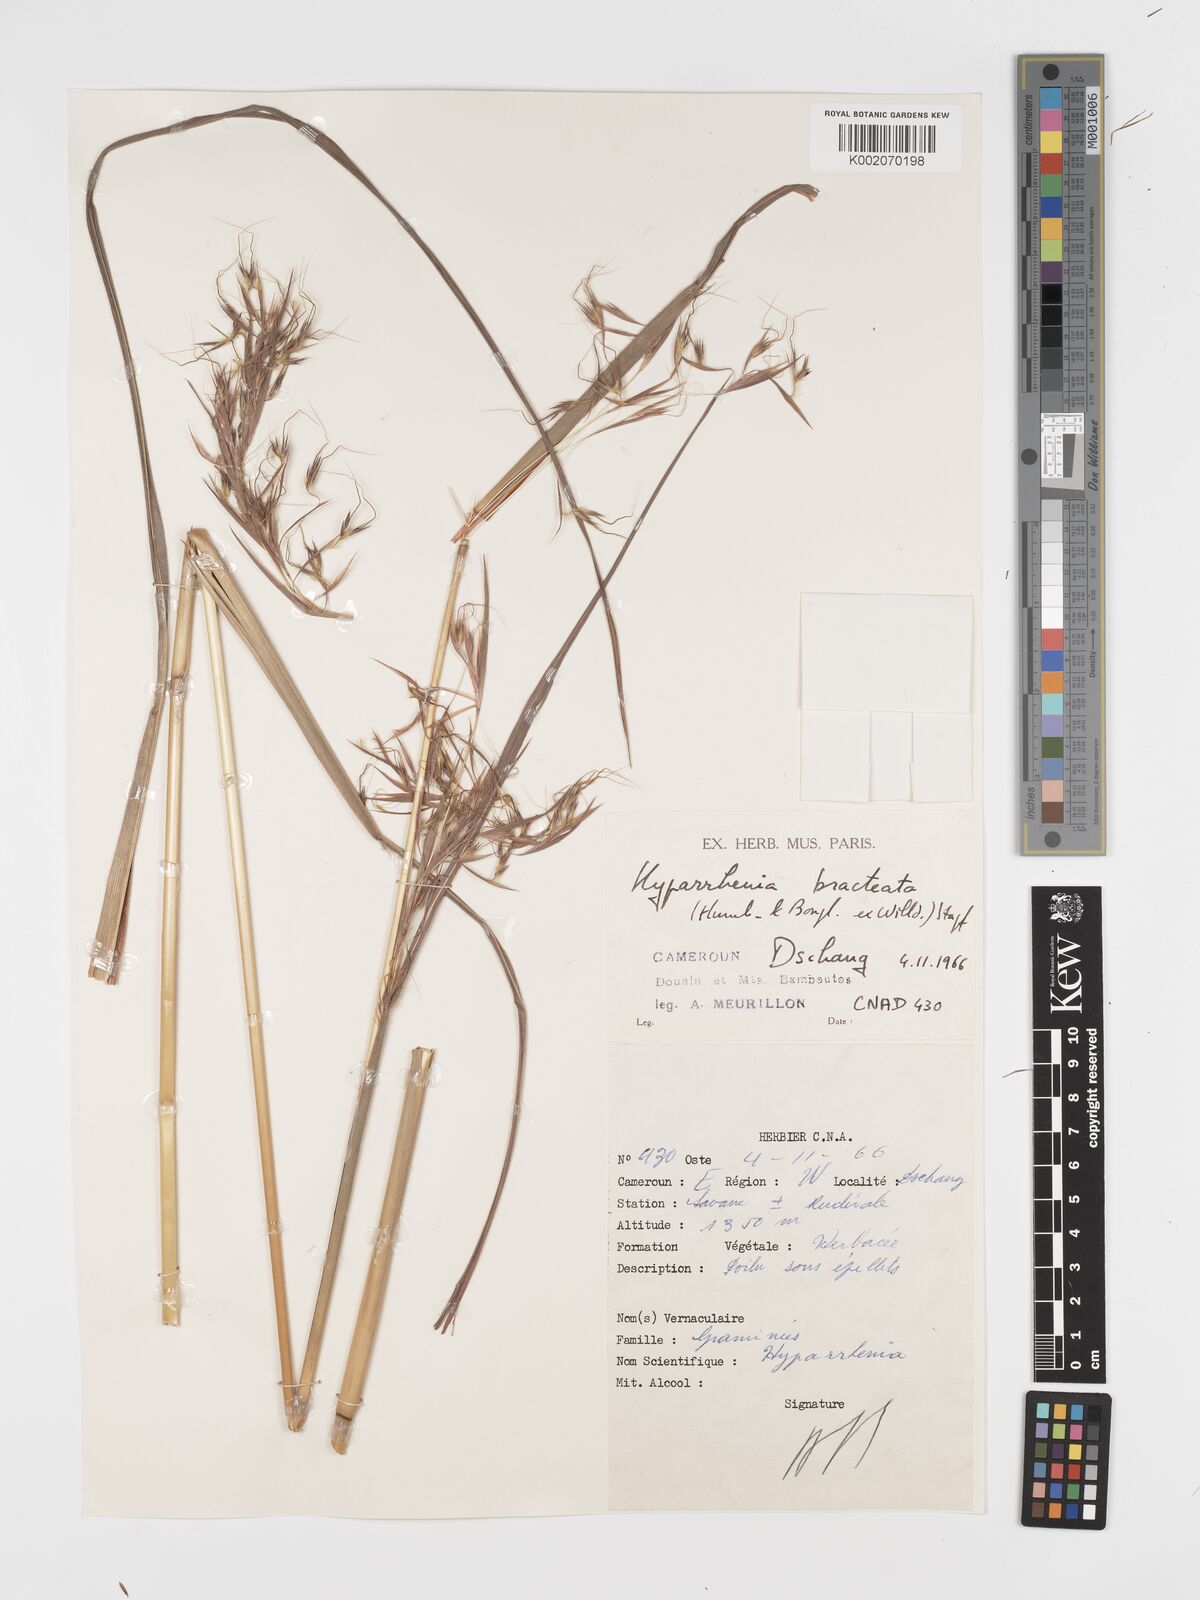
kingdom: Plantae
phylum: Tracheophyta
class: Liliopsida
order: Poales
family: Poaceae
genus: Hyparrhenia
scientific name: Hyparrhenia bracteata
